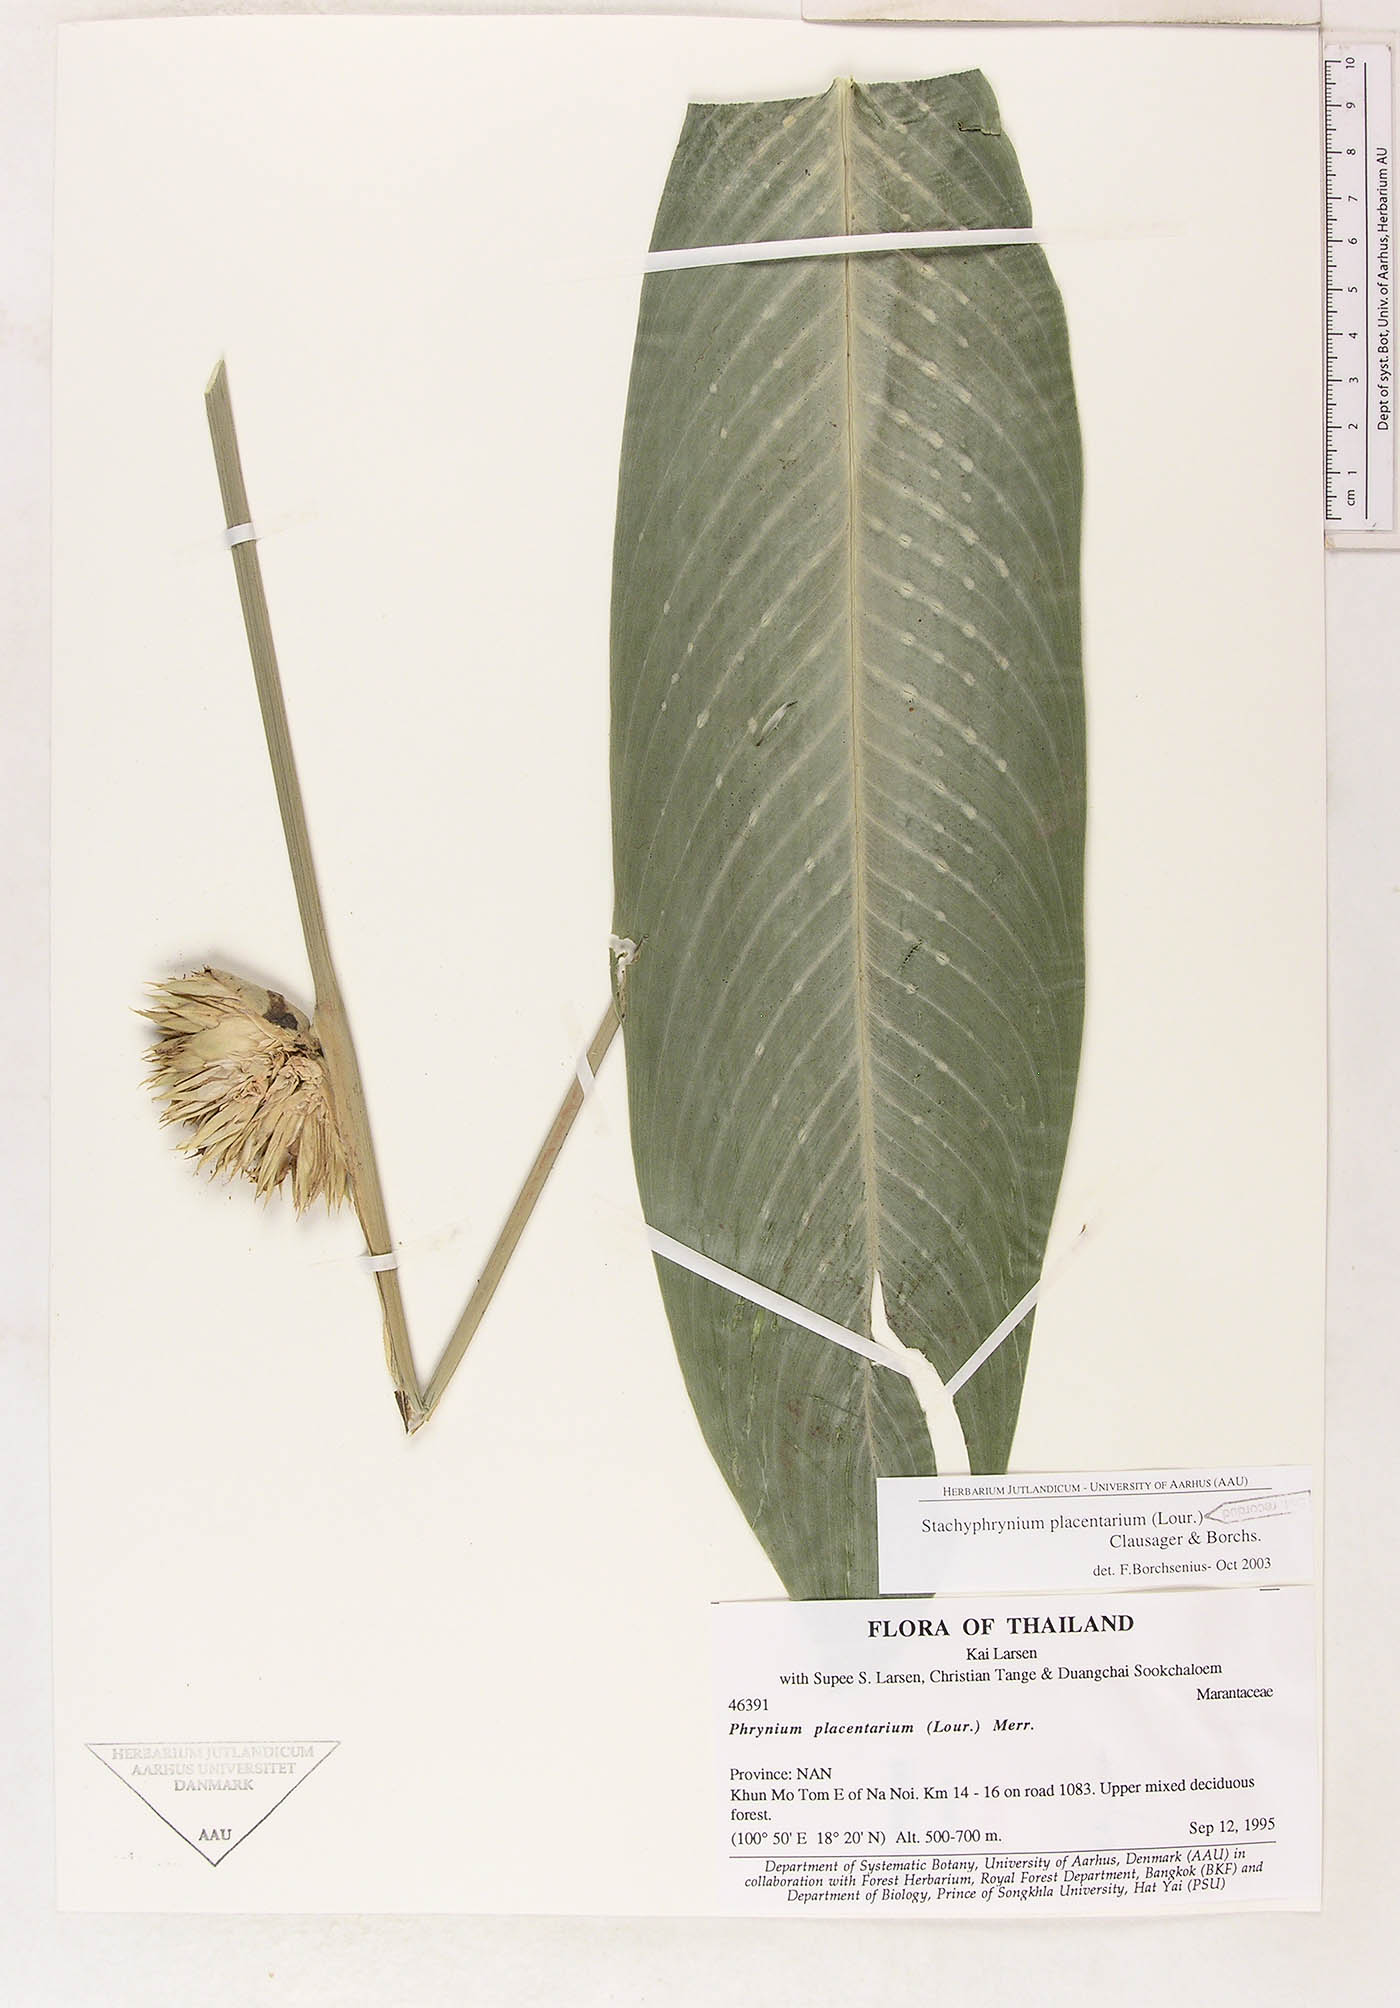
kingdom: Plantae
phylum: Tracheophyta
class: Liliopsida
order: Zingiberales
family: Marantaceae
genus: Stachyphrynium
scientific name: Stachyphrynium placentarium
